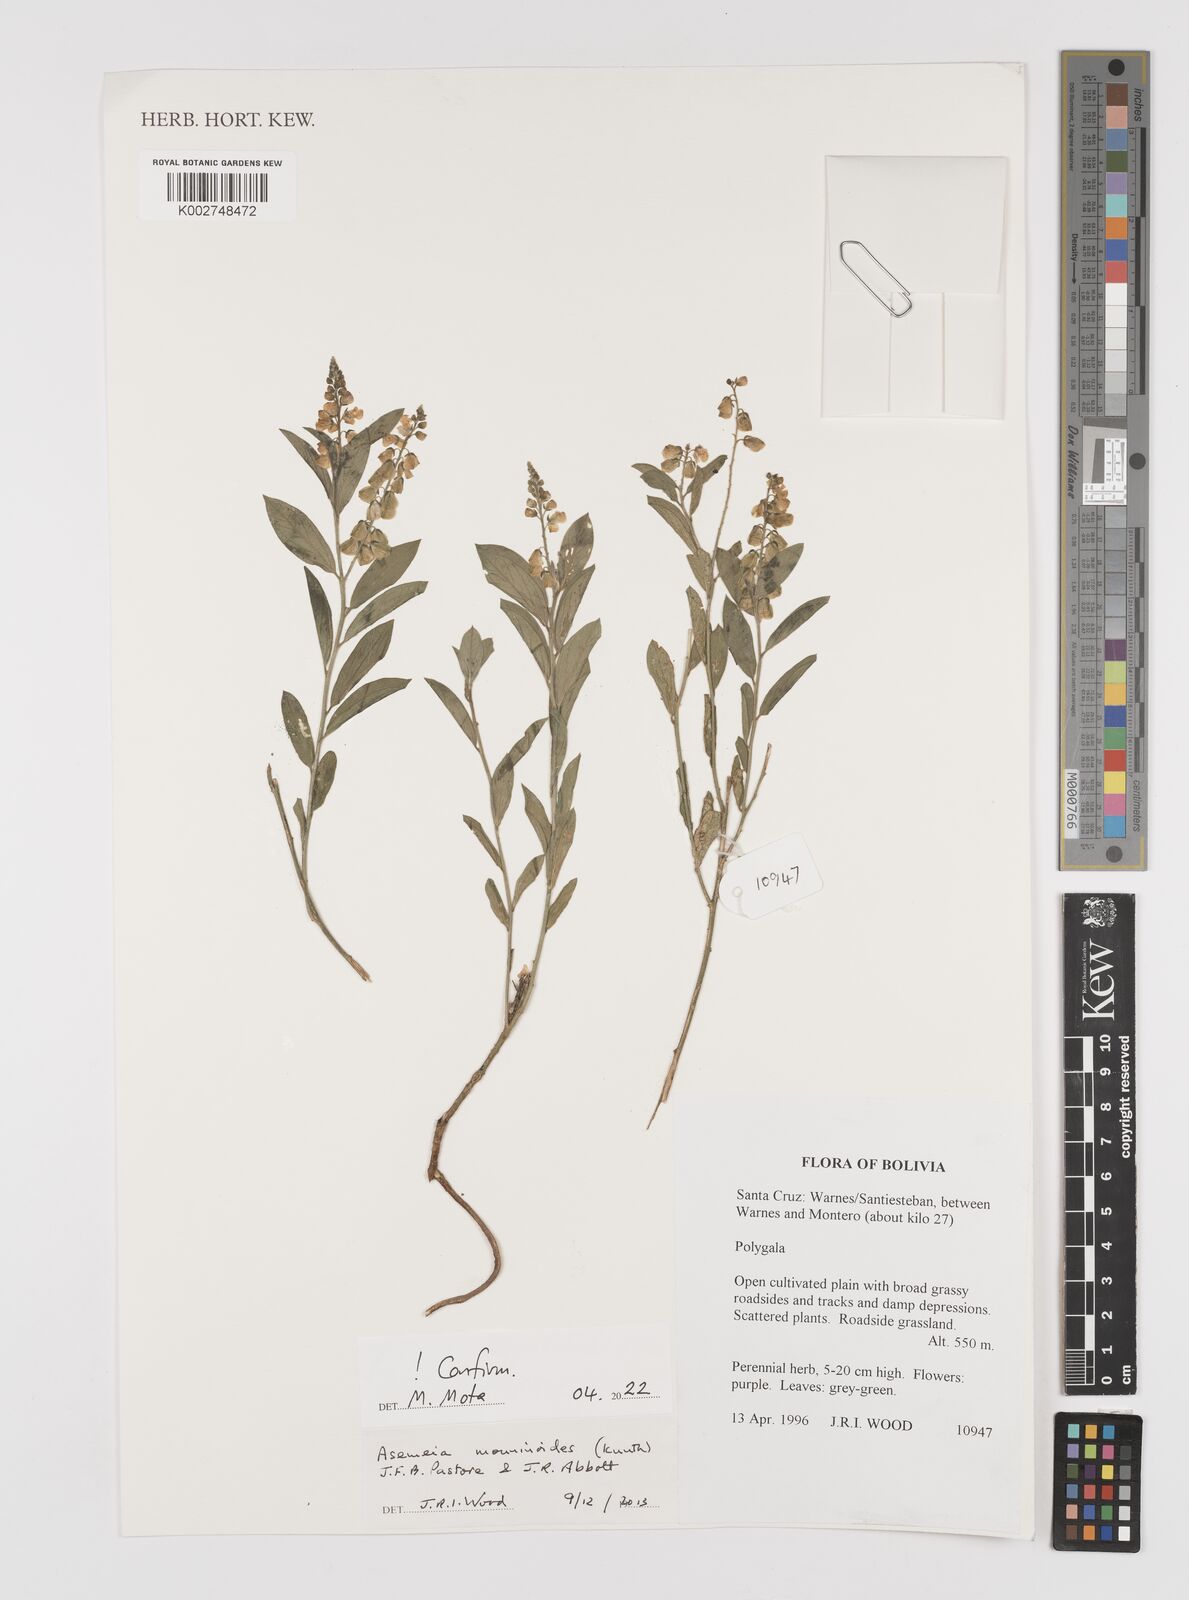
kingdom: Plantae
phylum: Tracheophyta
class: Magnoliopsida
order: Fabales
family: Polygalaceae
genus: Asemeia
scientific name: Asemeia monninoides
